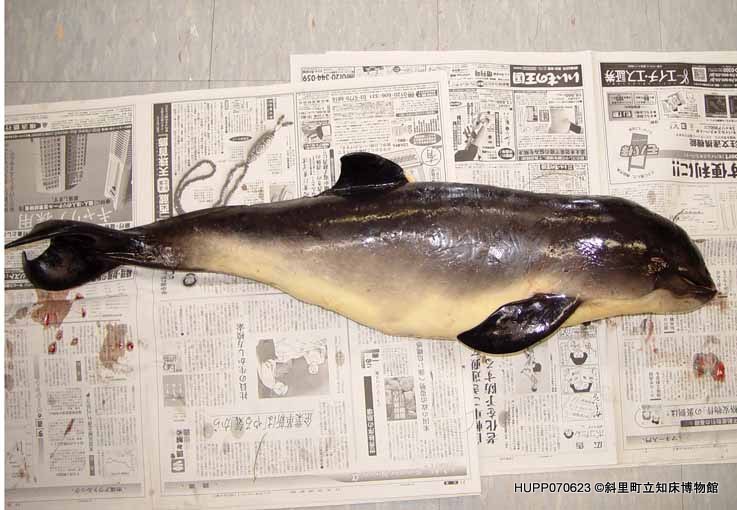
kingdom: Animalia
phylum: Chordata
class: Mammalia
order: Cetacea
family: Phocoenidae
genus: Phocoena
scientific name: Phocoena phocoena
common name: Harbour porpoise
